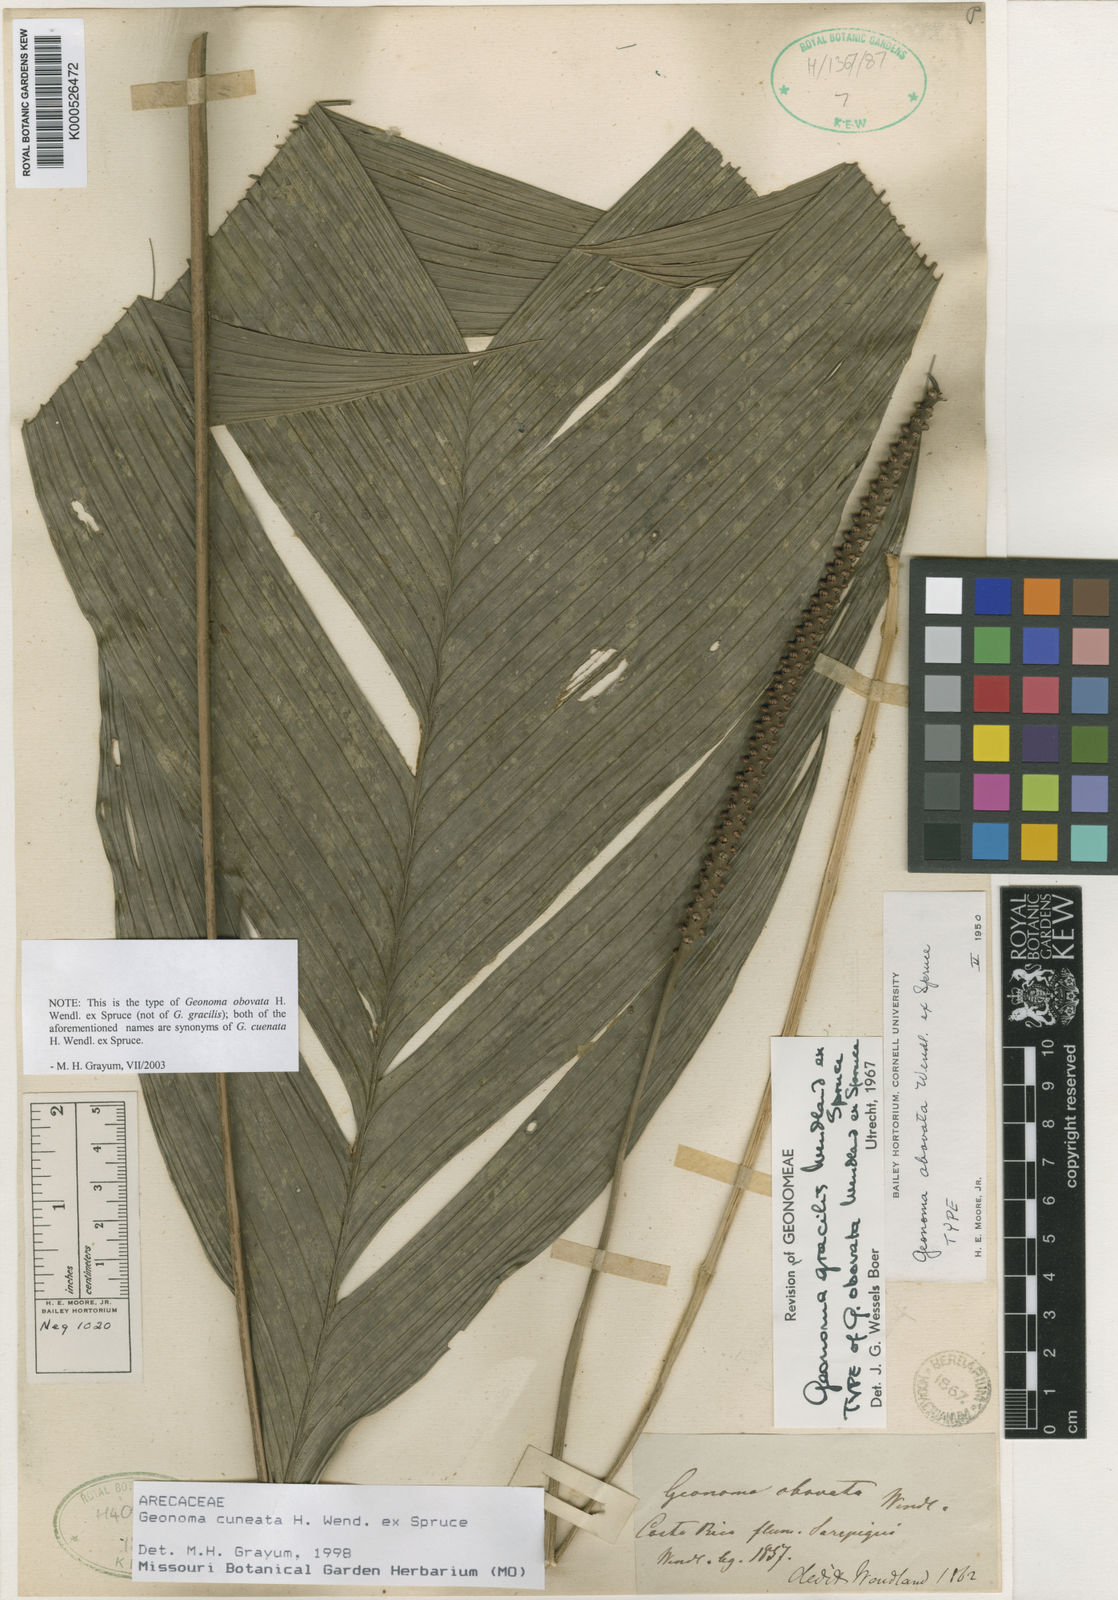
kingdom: Plantae
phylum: Tracheophyta
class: Liliopsida
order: Arecales
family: Arecaceae
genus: Geonoma
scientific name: Geonoma cuneata
